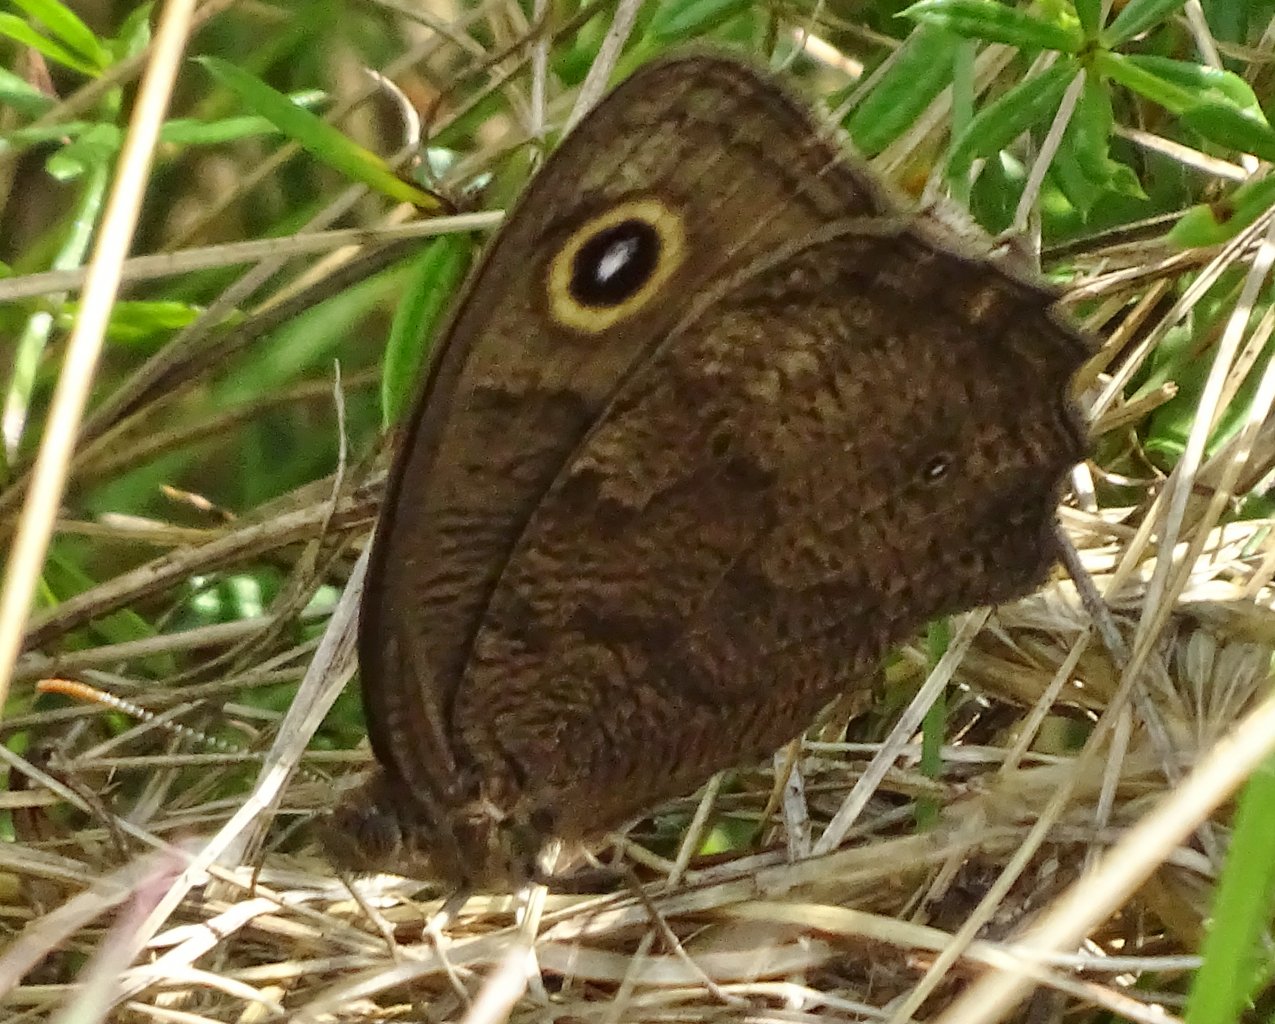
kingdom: Animalia
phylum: Arthropoda
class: Insecta
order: Lepidoptera
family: Nymphalidae
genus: Cercyonis
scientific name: Cercyonis pegala
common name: Common Wood-Nymph
